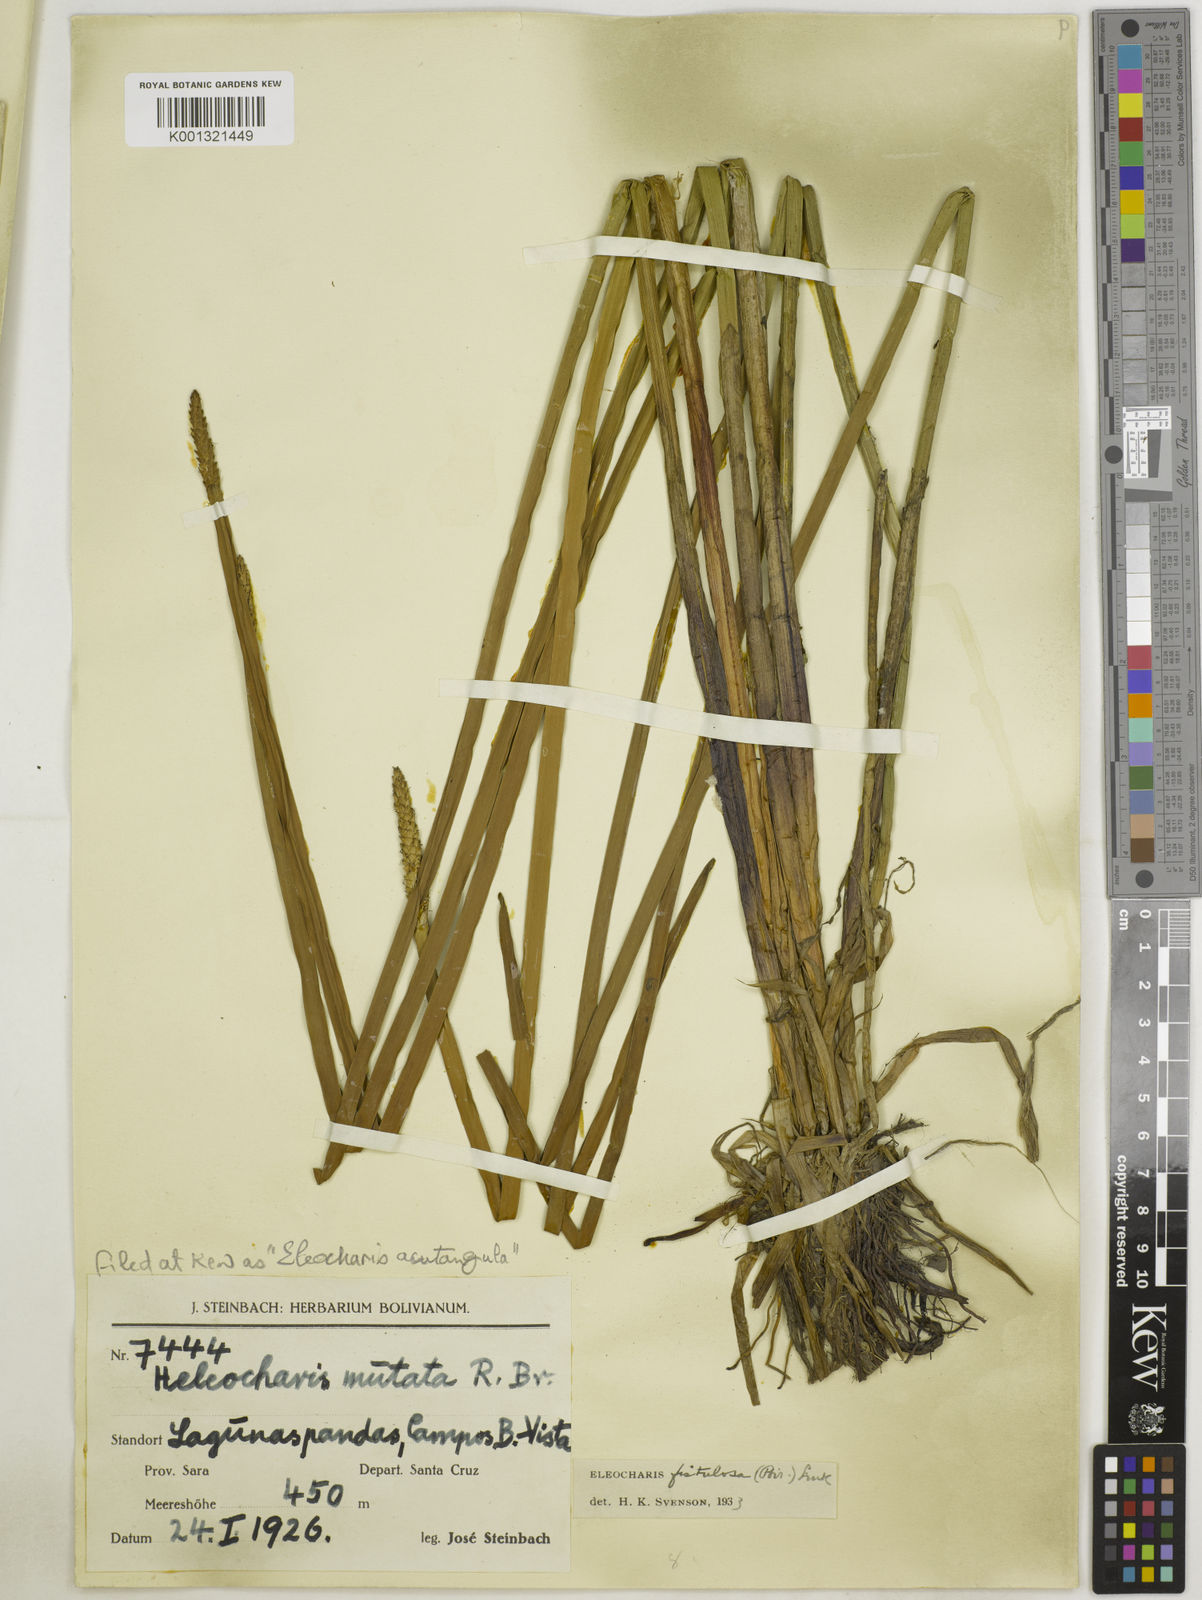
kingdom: Plantae
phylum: Tracheophyta
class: Liliopsida
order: Poales
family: Cyperaceae
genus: Eleocharis
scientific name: Eleocharis acutangula
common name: Acute spikerush
